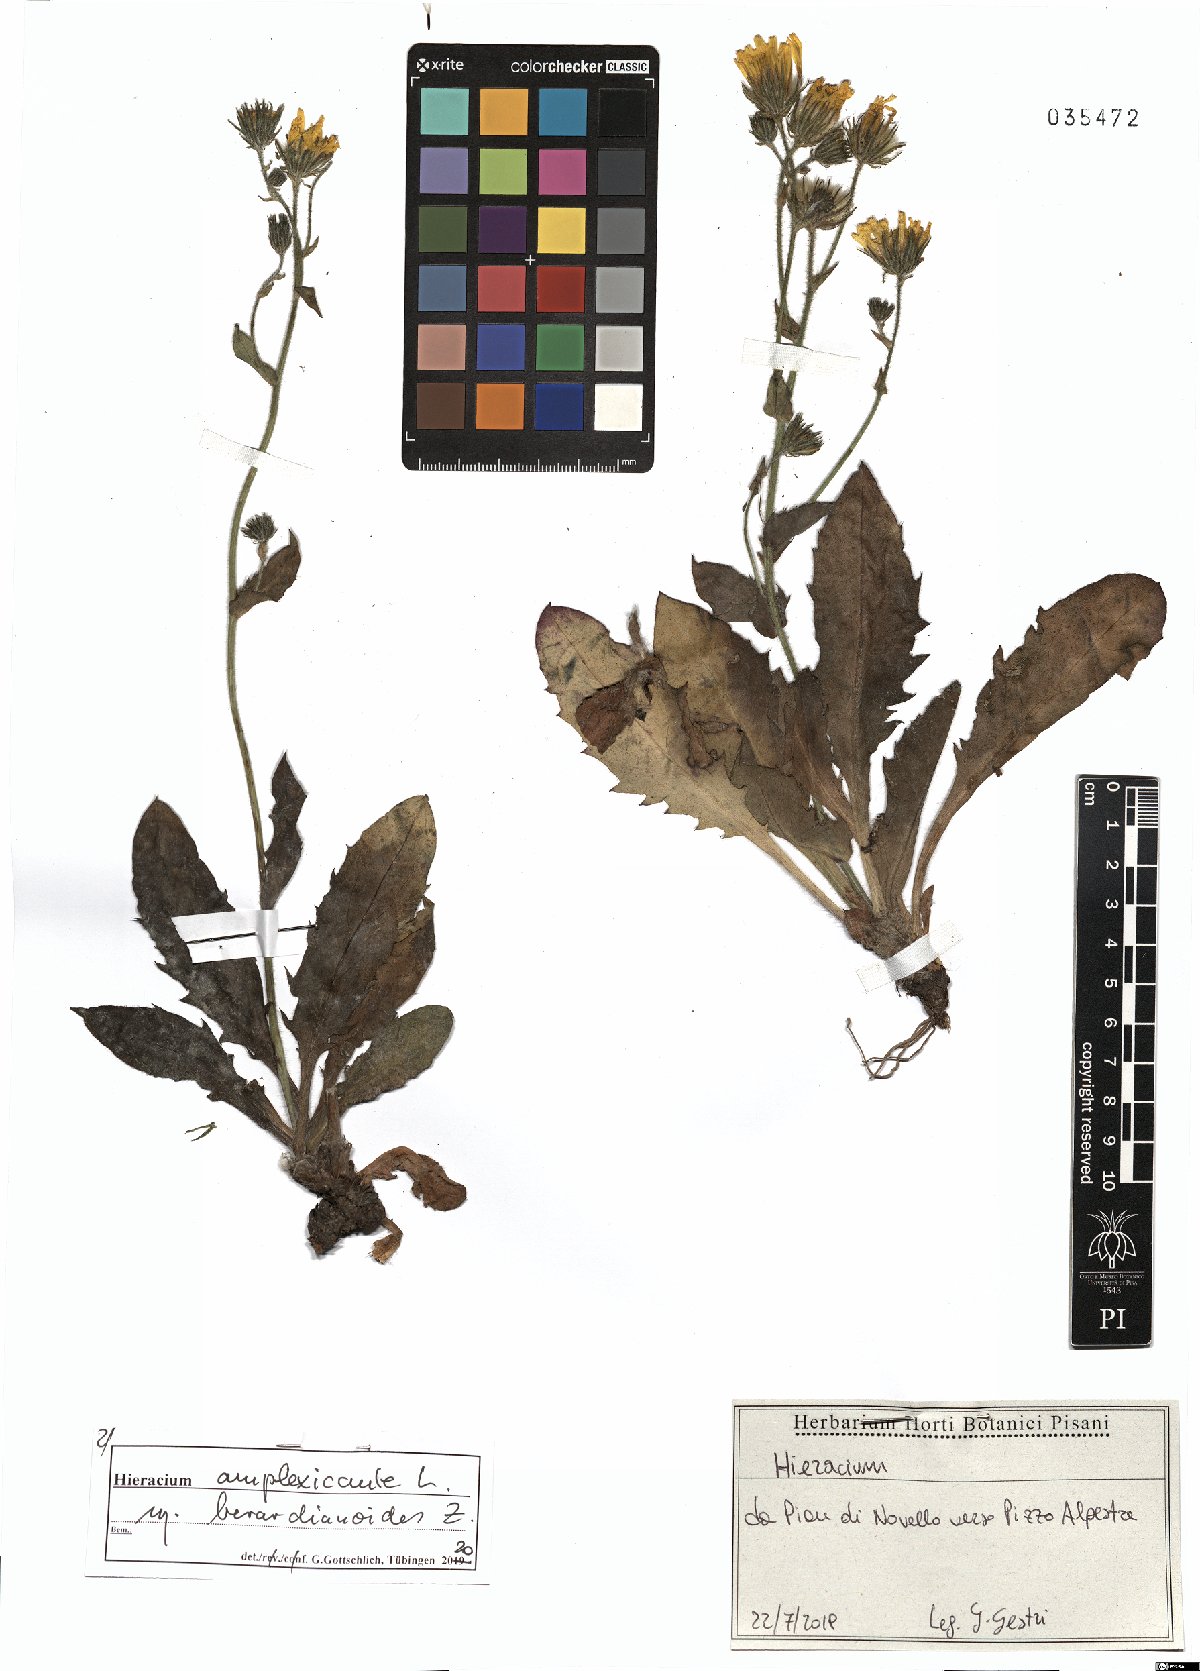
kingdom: Plantae
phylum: Tracheophyta
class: Magnoliopsida
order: Asterales
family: Asteraceae
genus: Hieracium
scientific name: Hieracium amplexicaule
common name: Sticky hawkweed
